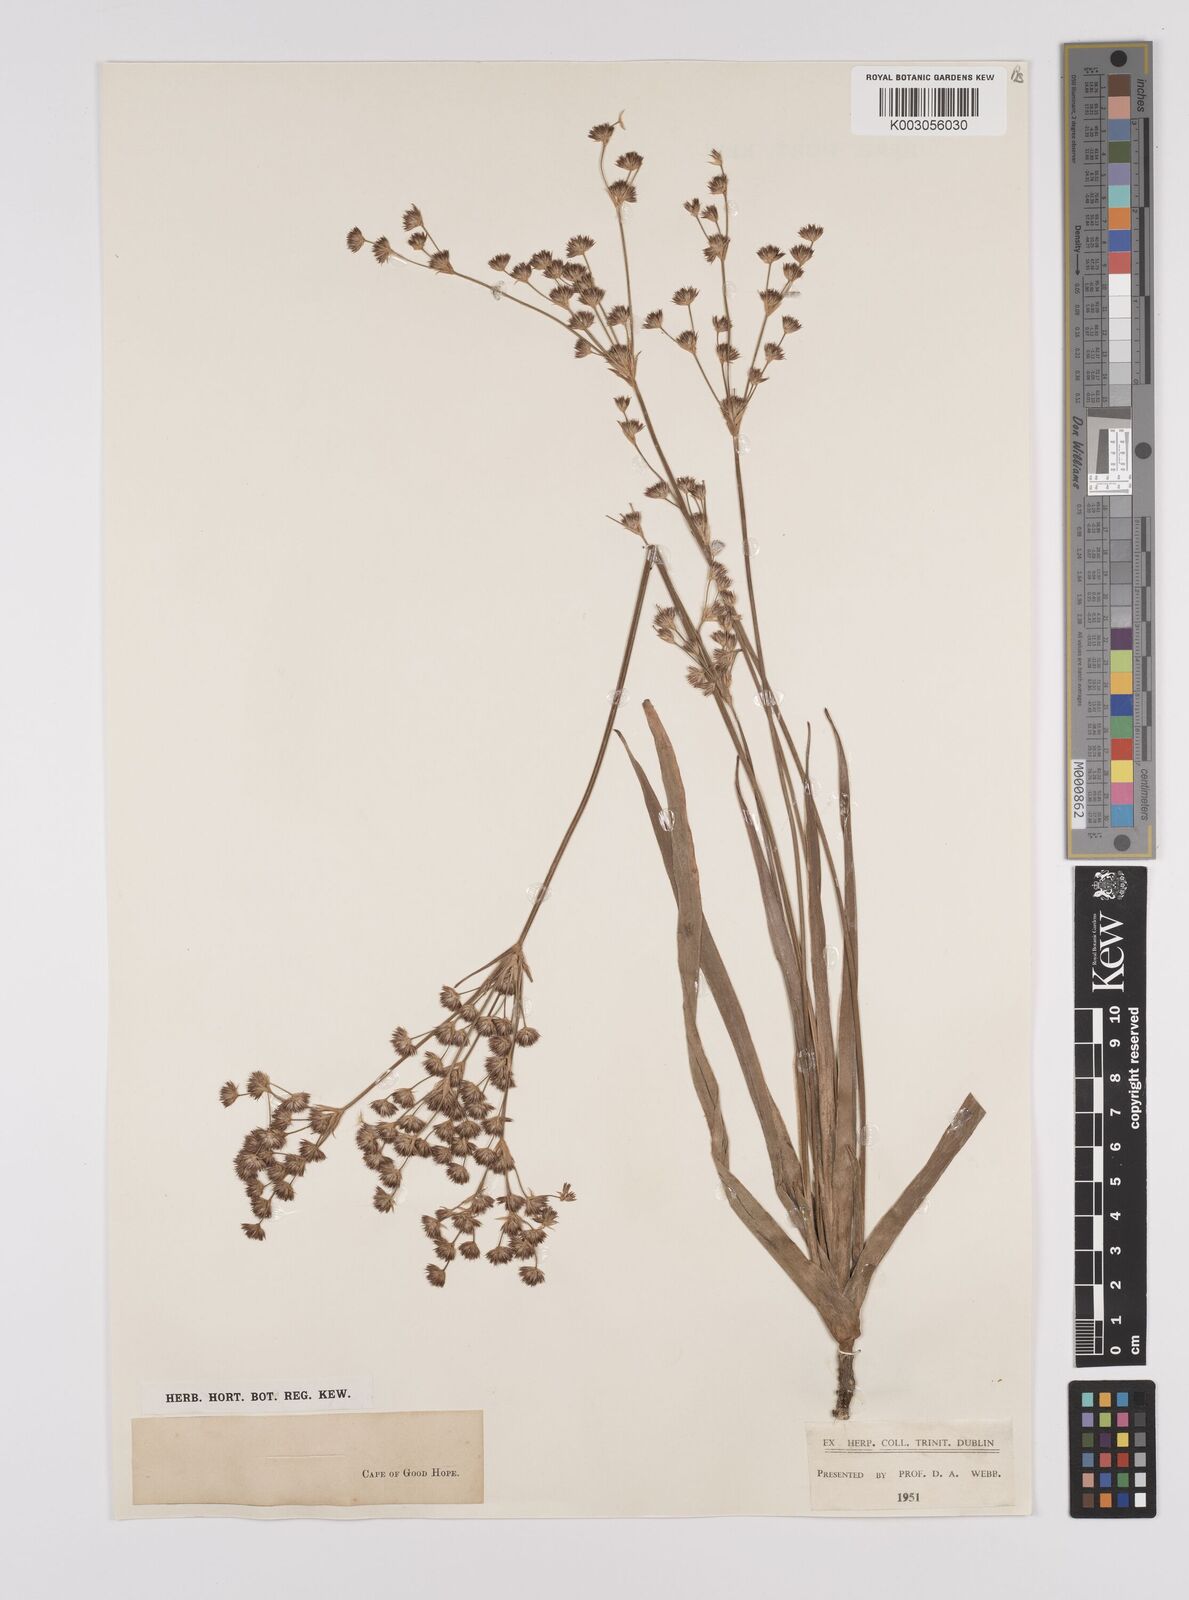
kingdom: Plantae
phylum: Tracheophyta
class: Liliopsida
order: Poales
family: Juncaceae
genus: Juncus
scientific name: Juncus lomatophyllus
